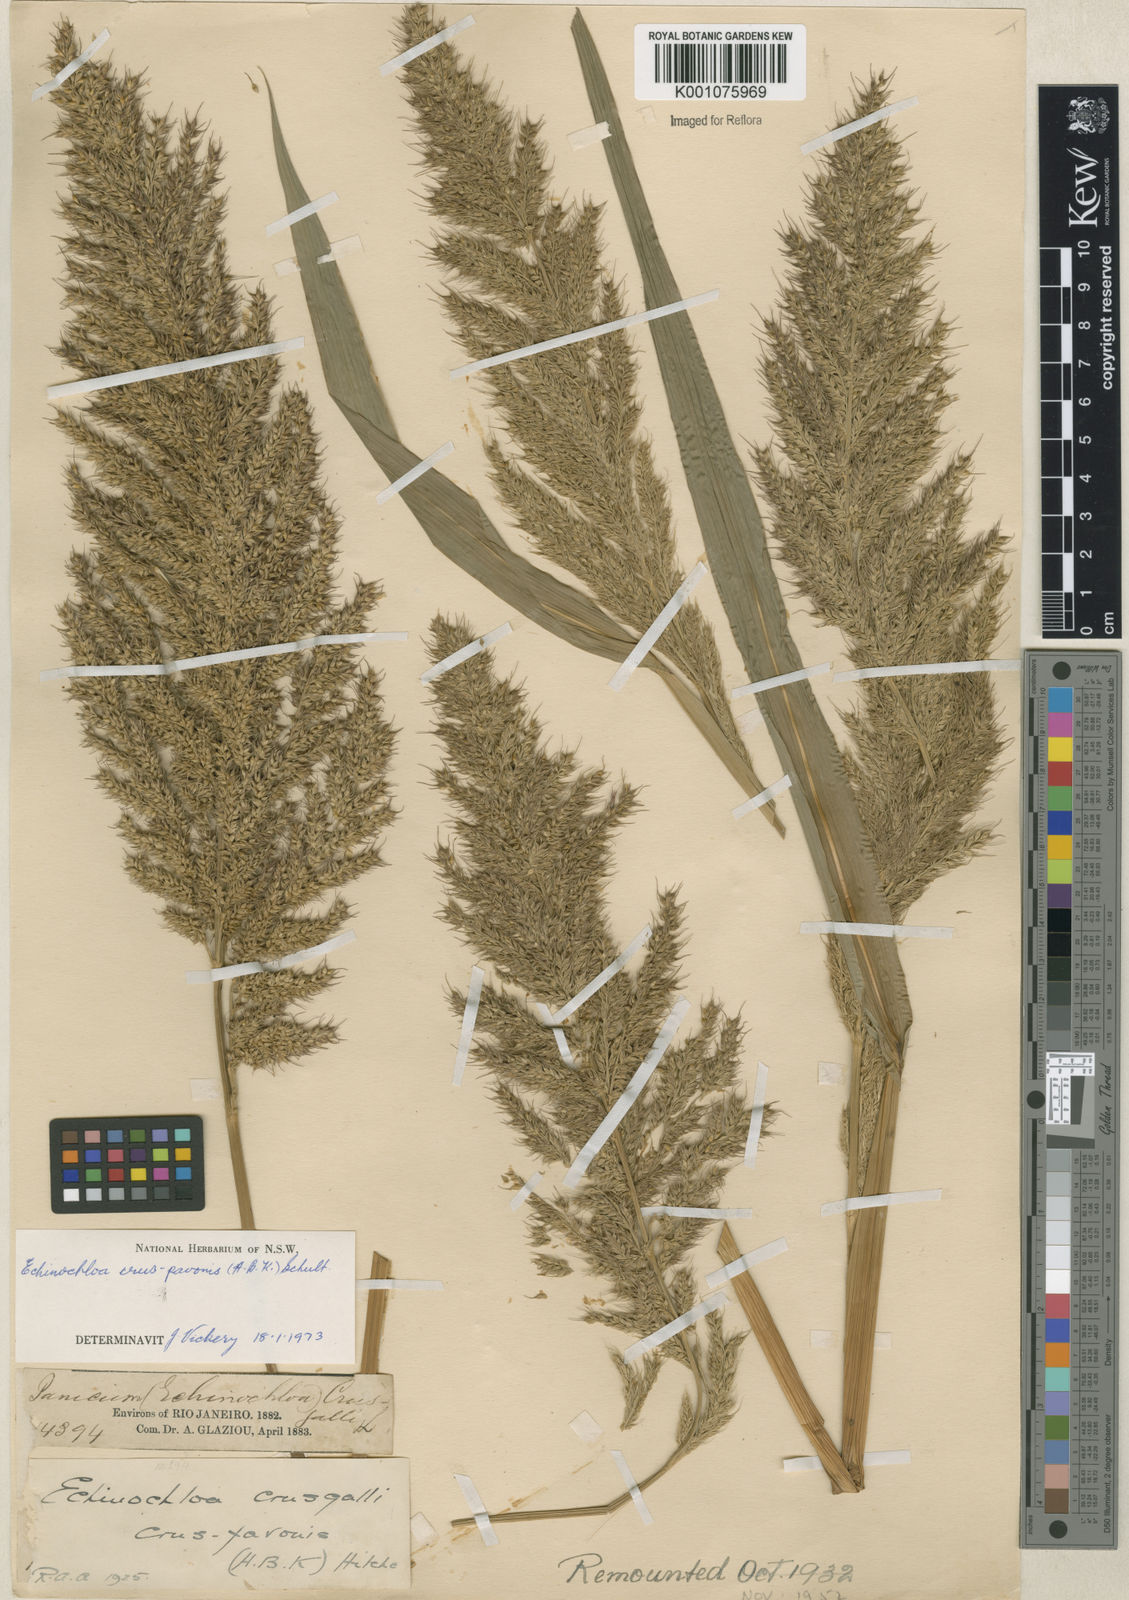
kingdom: Plantae
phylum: Tracheophyta
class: Liliopsida
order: Poales
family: Poaceae
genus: Echinochloa
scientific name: Echinochloa crus-pavonis
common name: Gulf cockspur grass
